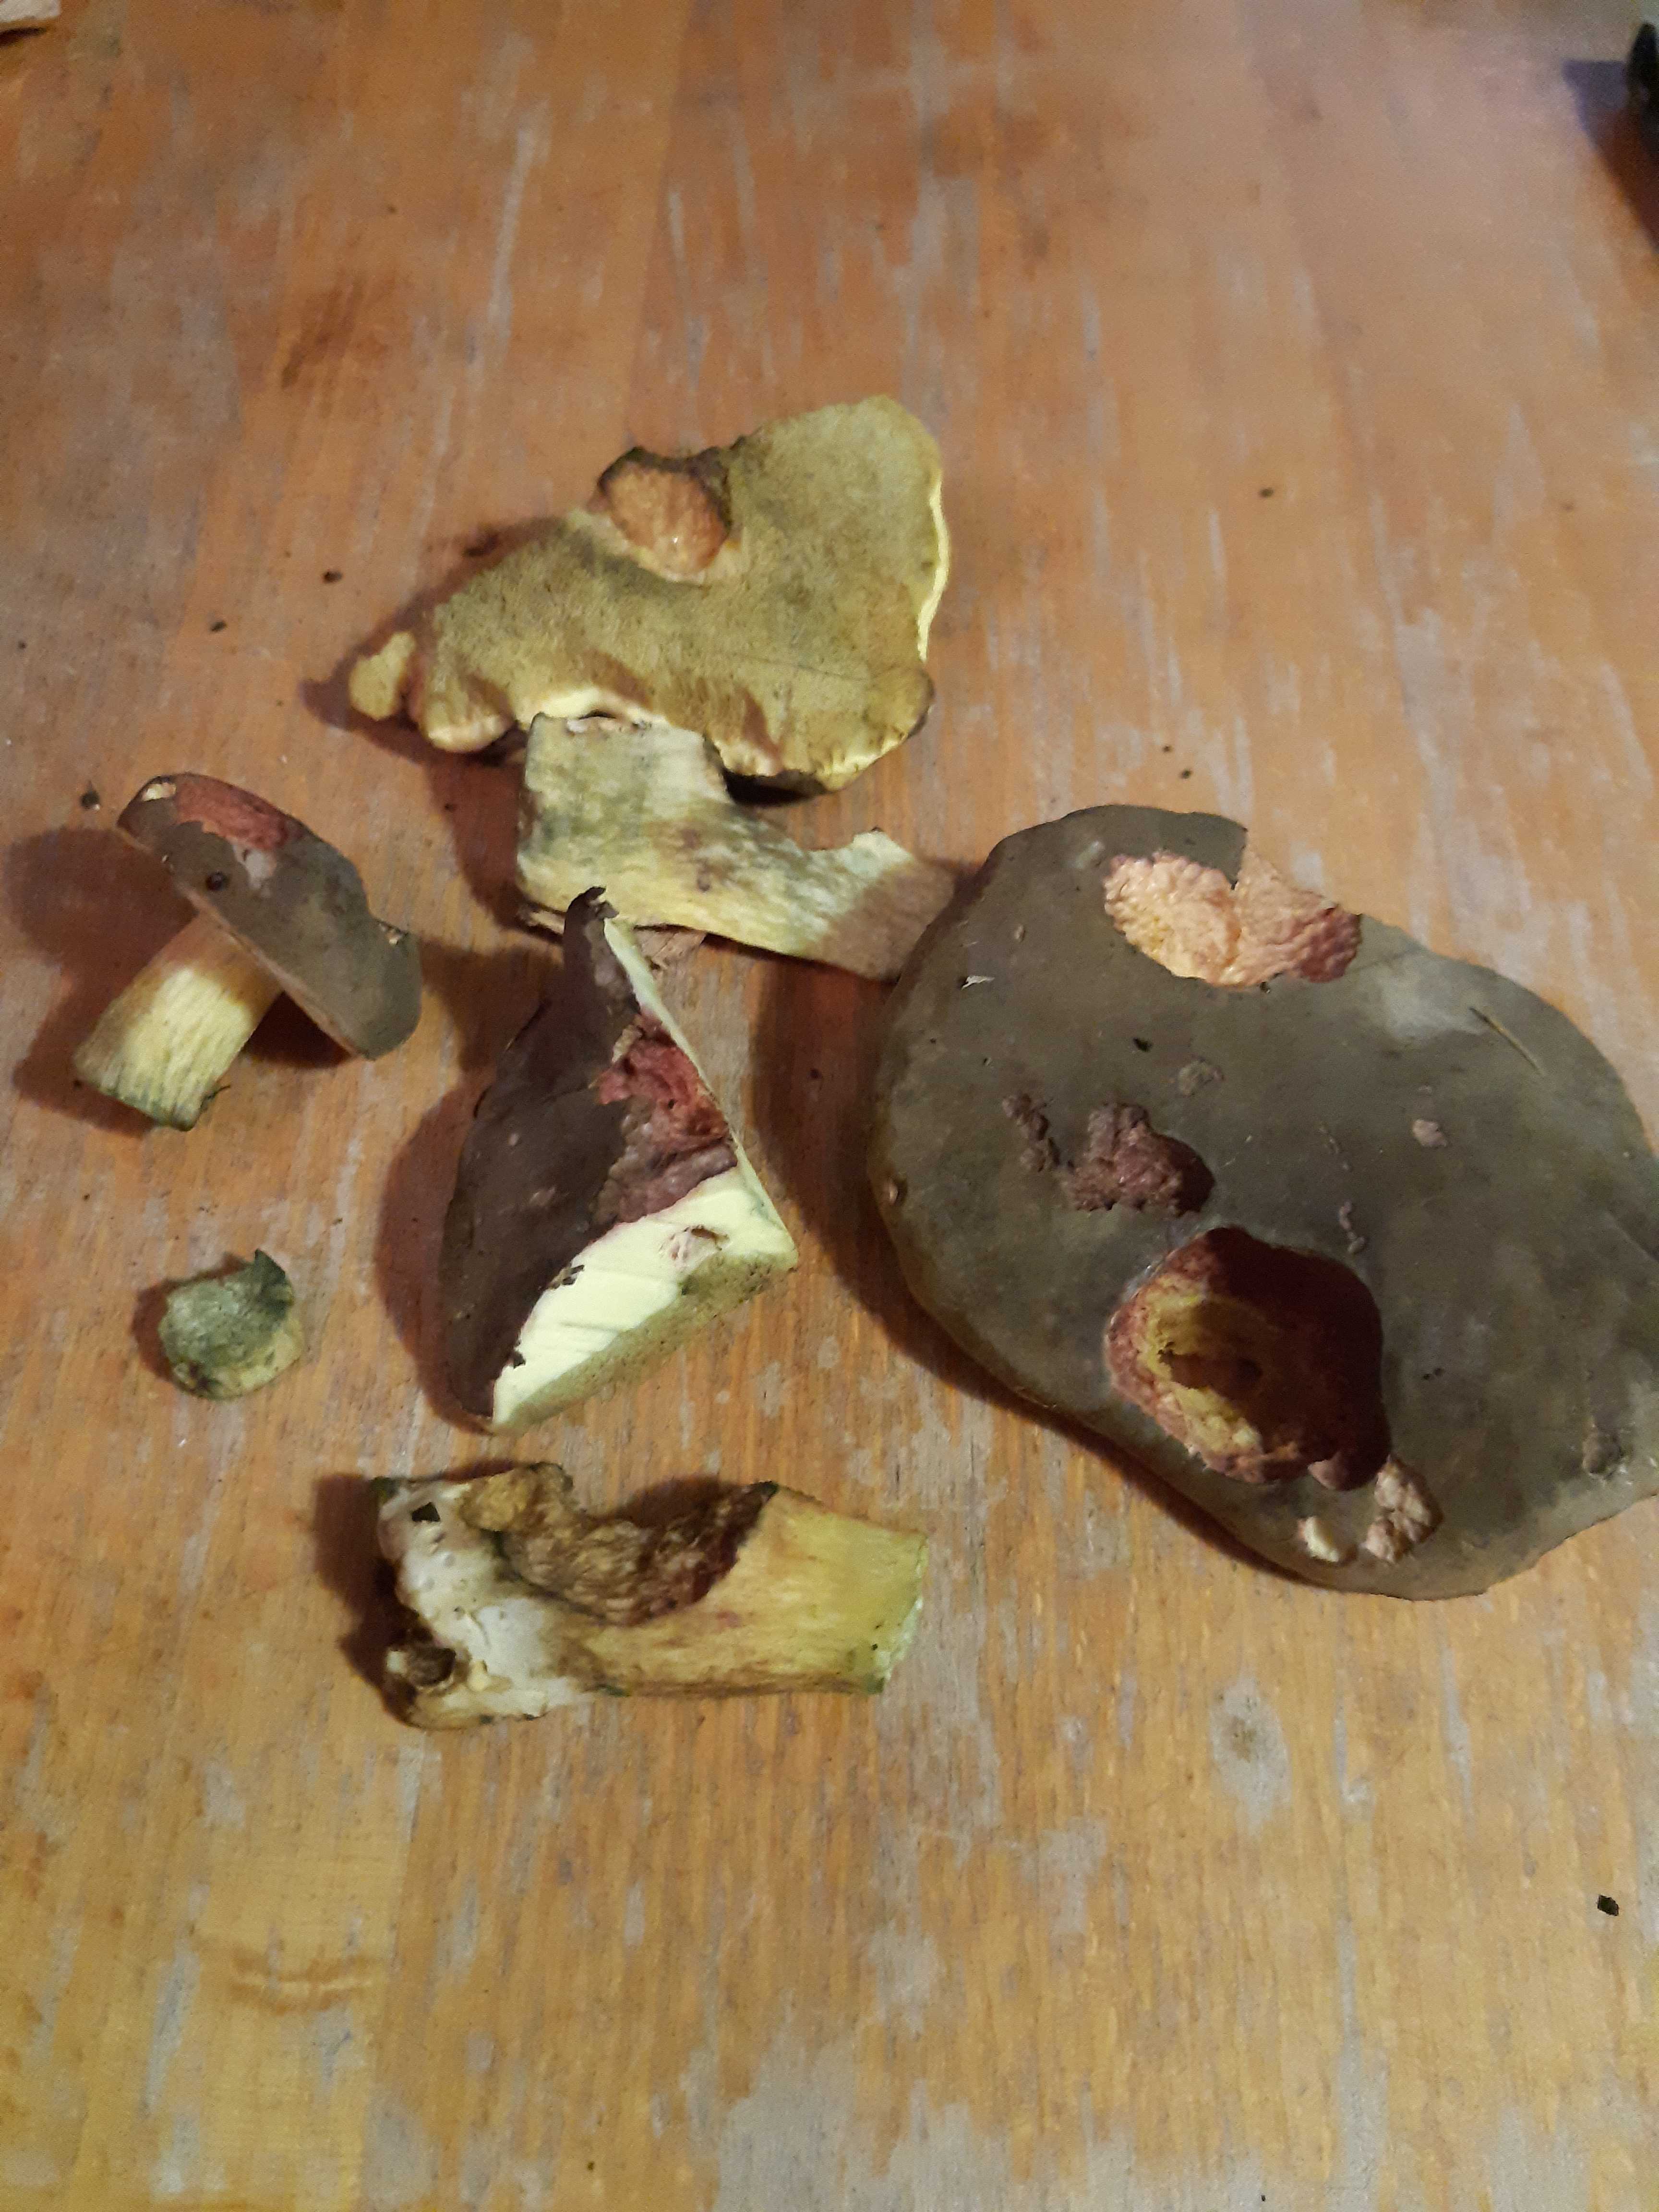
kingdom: Fungi
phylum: Basidiomycota
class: Agaricomycetes
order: Boletales
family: Boletaceae
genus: Xerocomellus
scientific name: Xerocomellus pruinatus
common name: dugget rørhat
